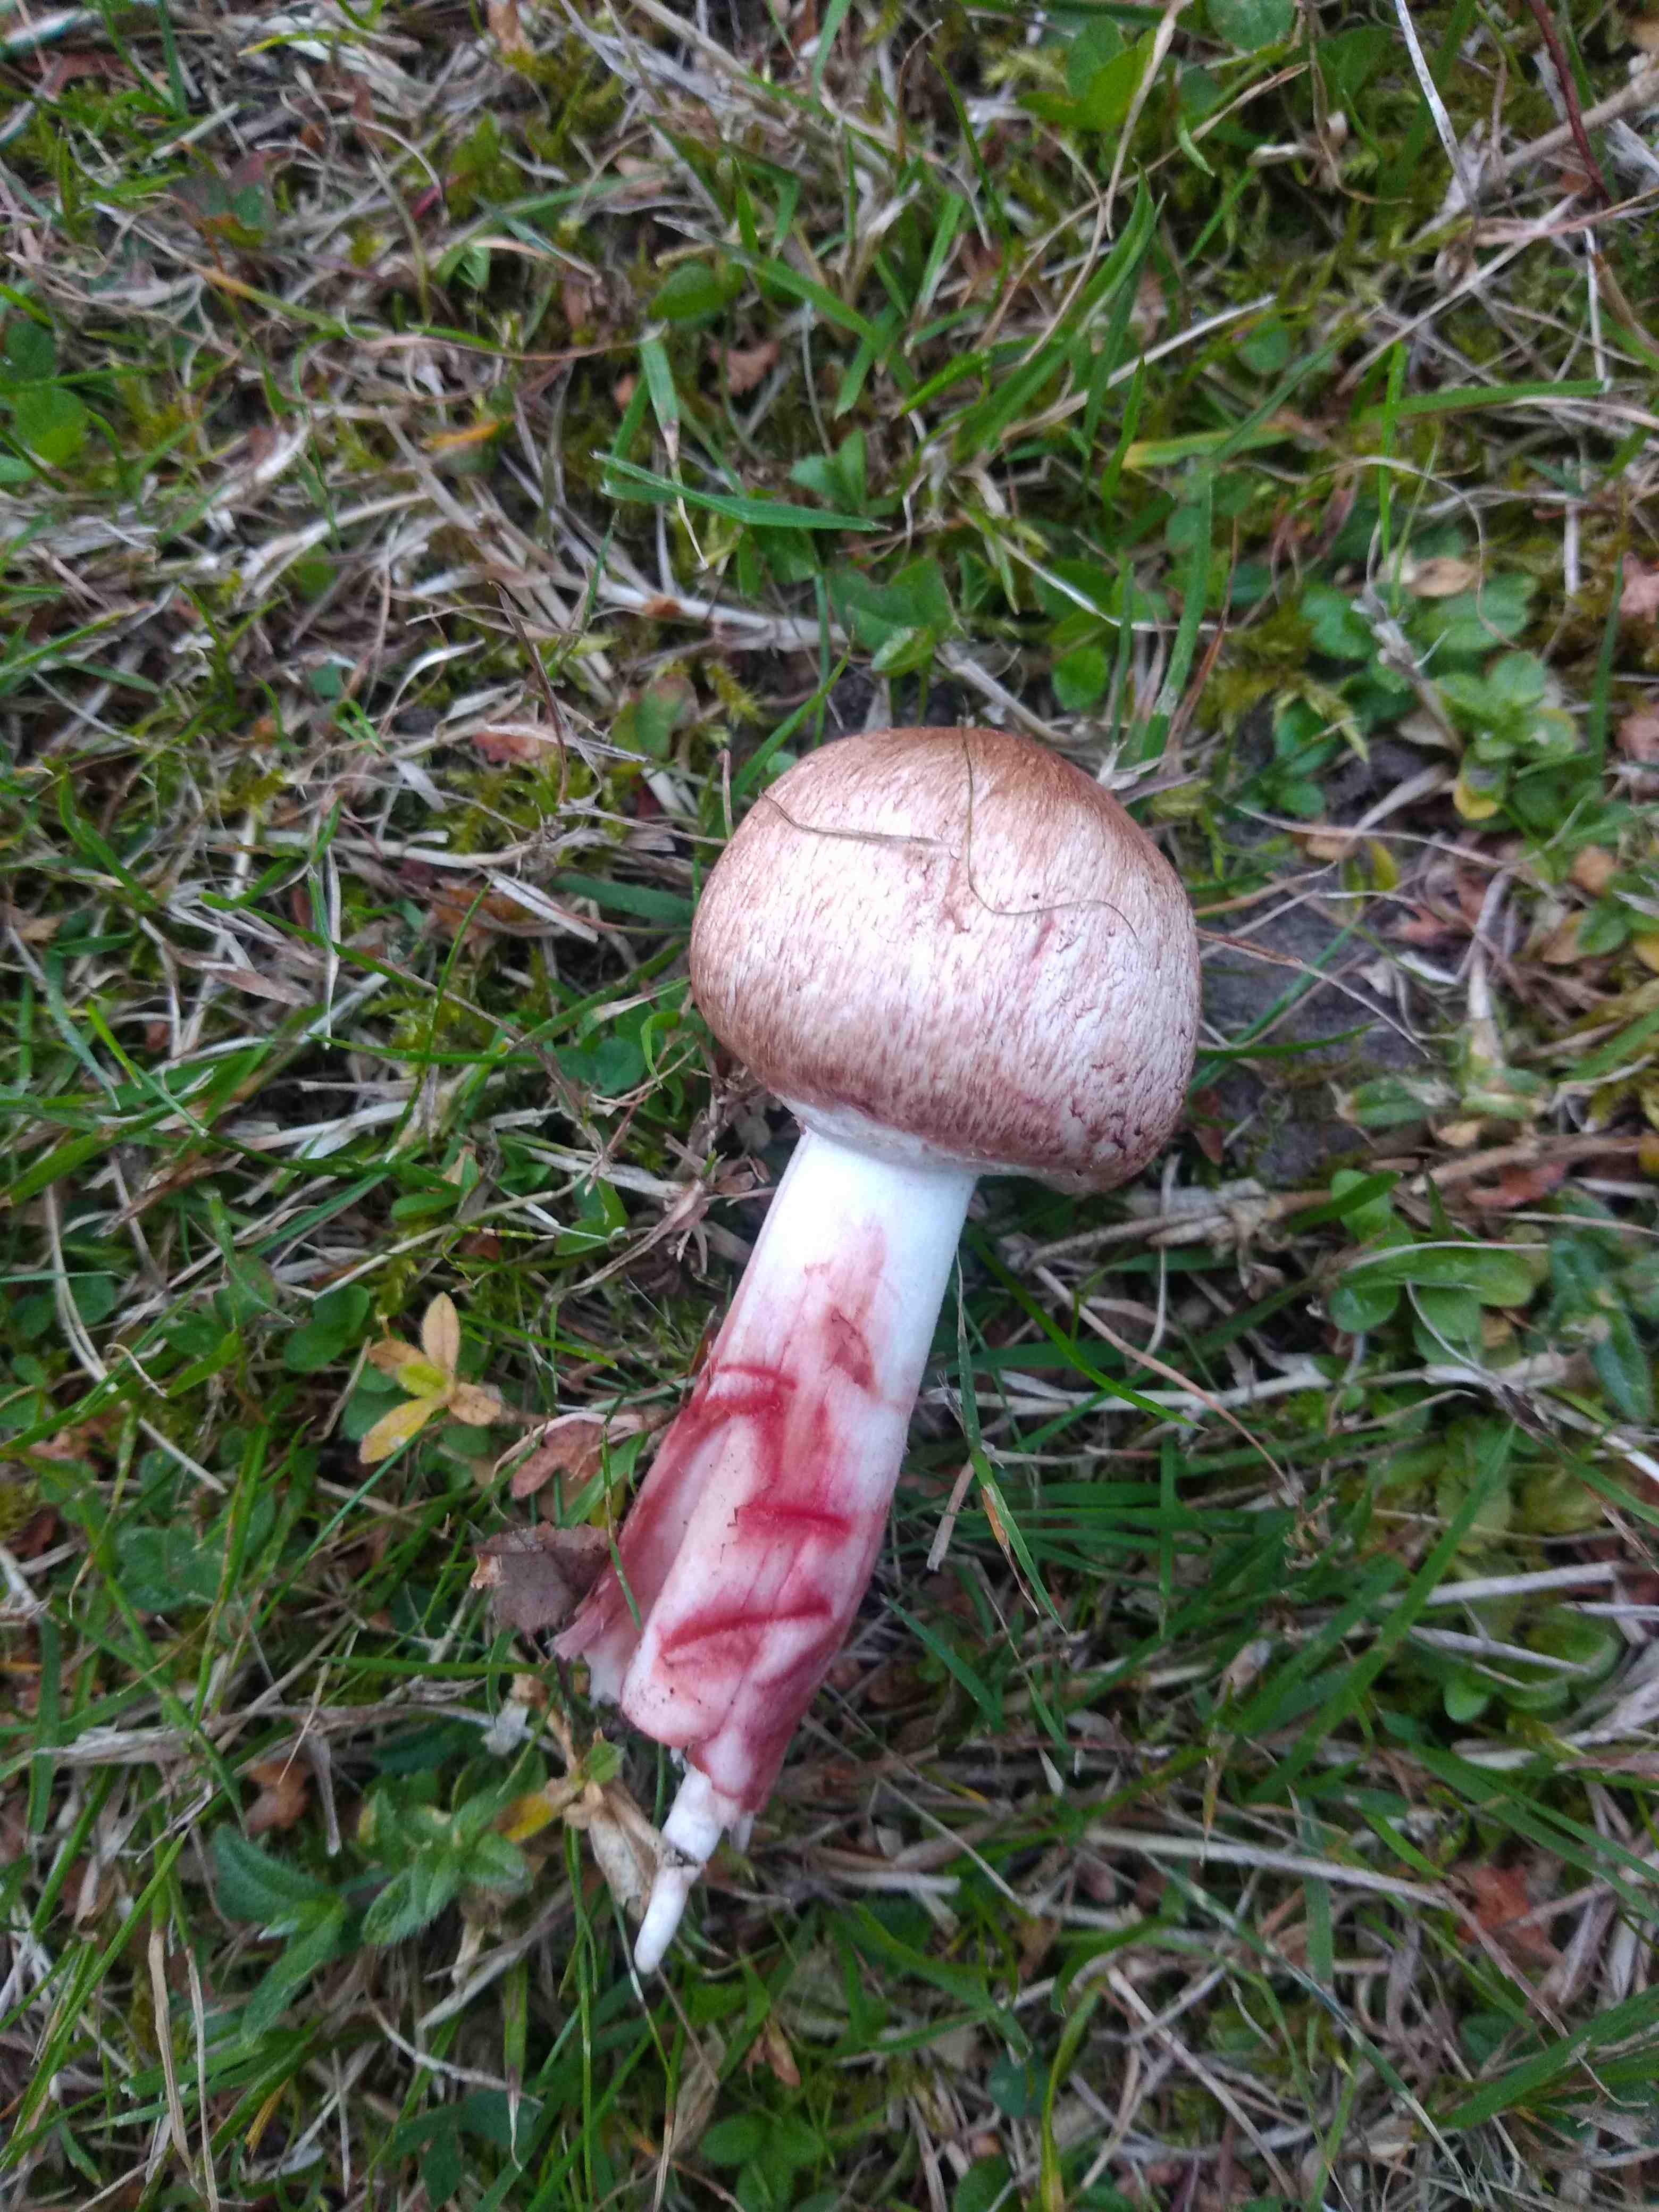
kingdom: Fungi
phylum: Basidiomycota
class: Agaricomycetes
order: Agaricales
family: Agaricaceae
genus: Agaricus
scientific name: Agaricus
